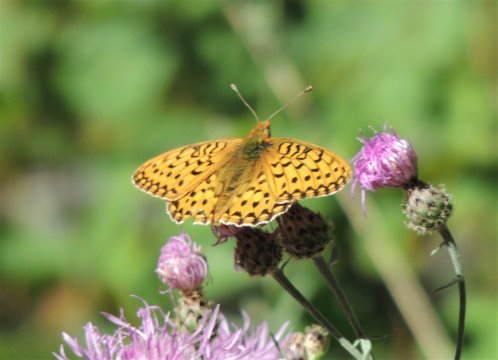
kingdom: Animalia
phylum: Arthropoda
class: Insecta
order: Lepidoptera
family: Nymphalidae
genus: Speyeria
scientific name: Speyeria mormonia
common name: Mormon Fritillary
